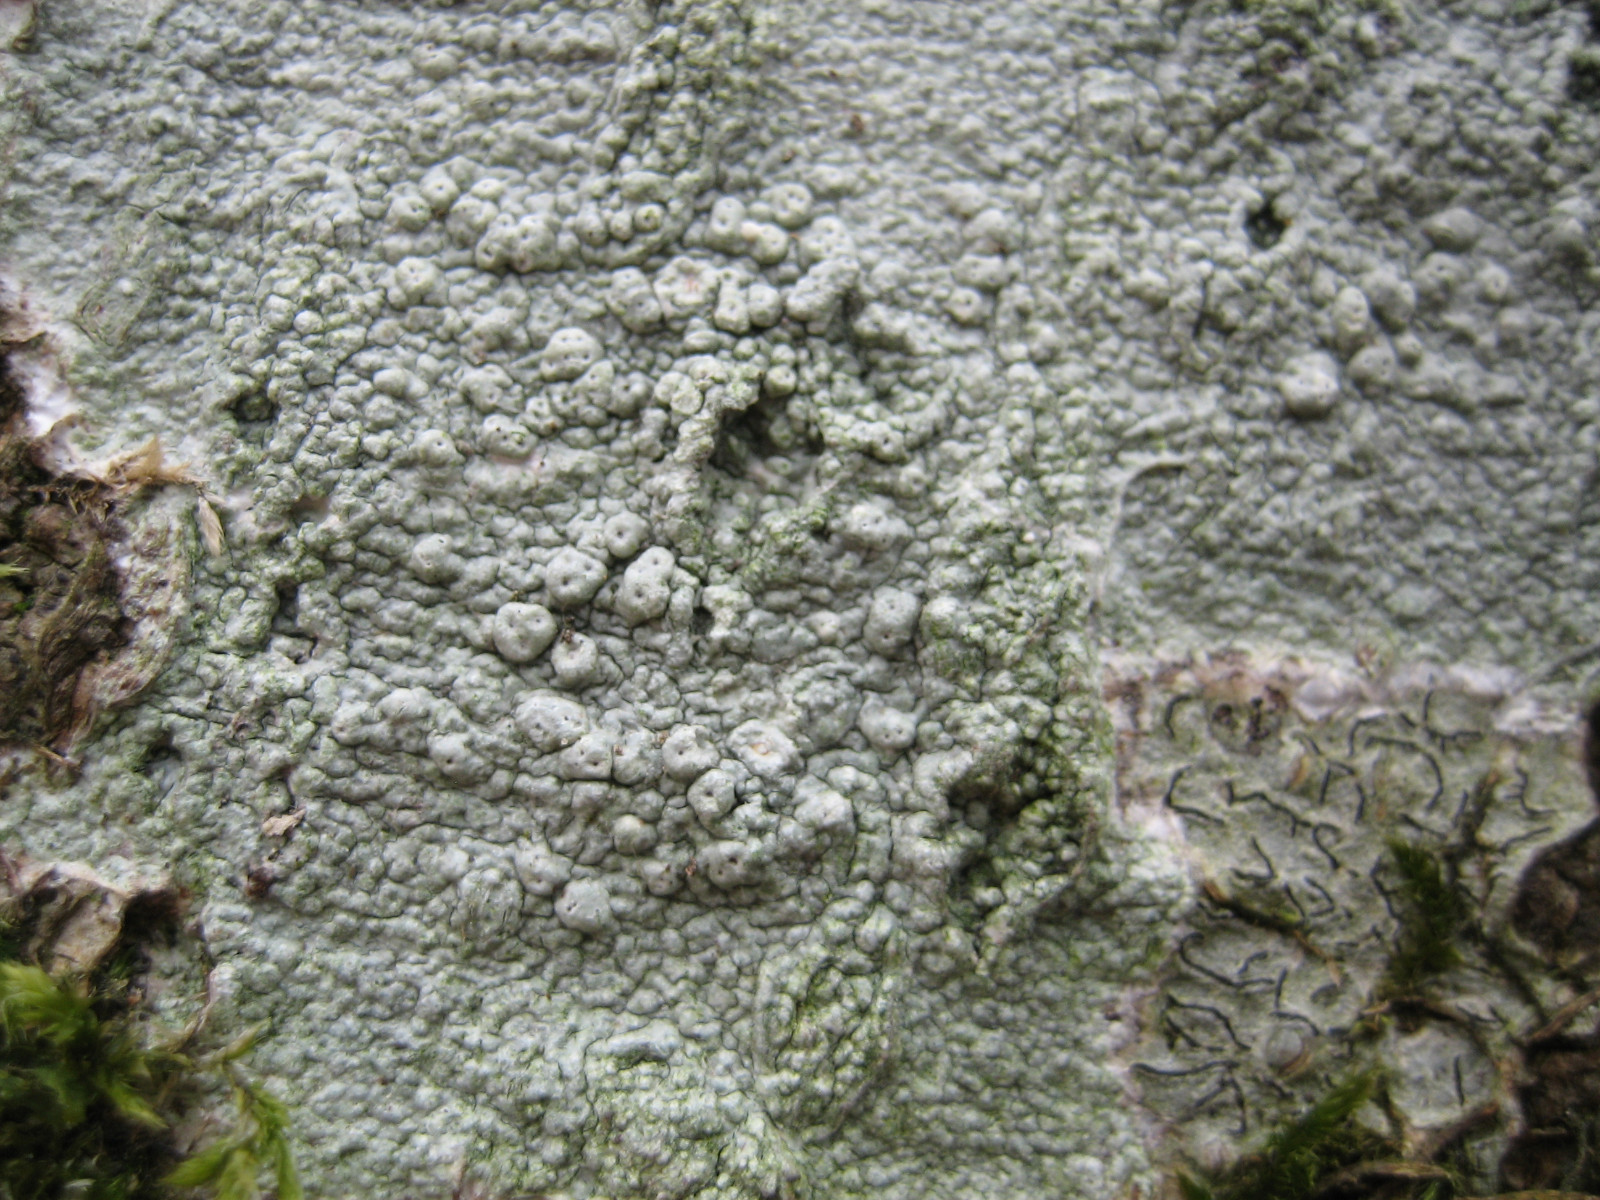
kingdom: Fungi
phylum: Ascomycota
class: Lecanoromycetes
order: Pertusariales
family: Pertusariaceae
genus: Pertusaria
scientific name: Pertusaria pertusa
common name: almindelig prikvortelav
